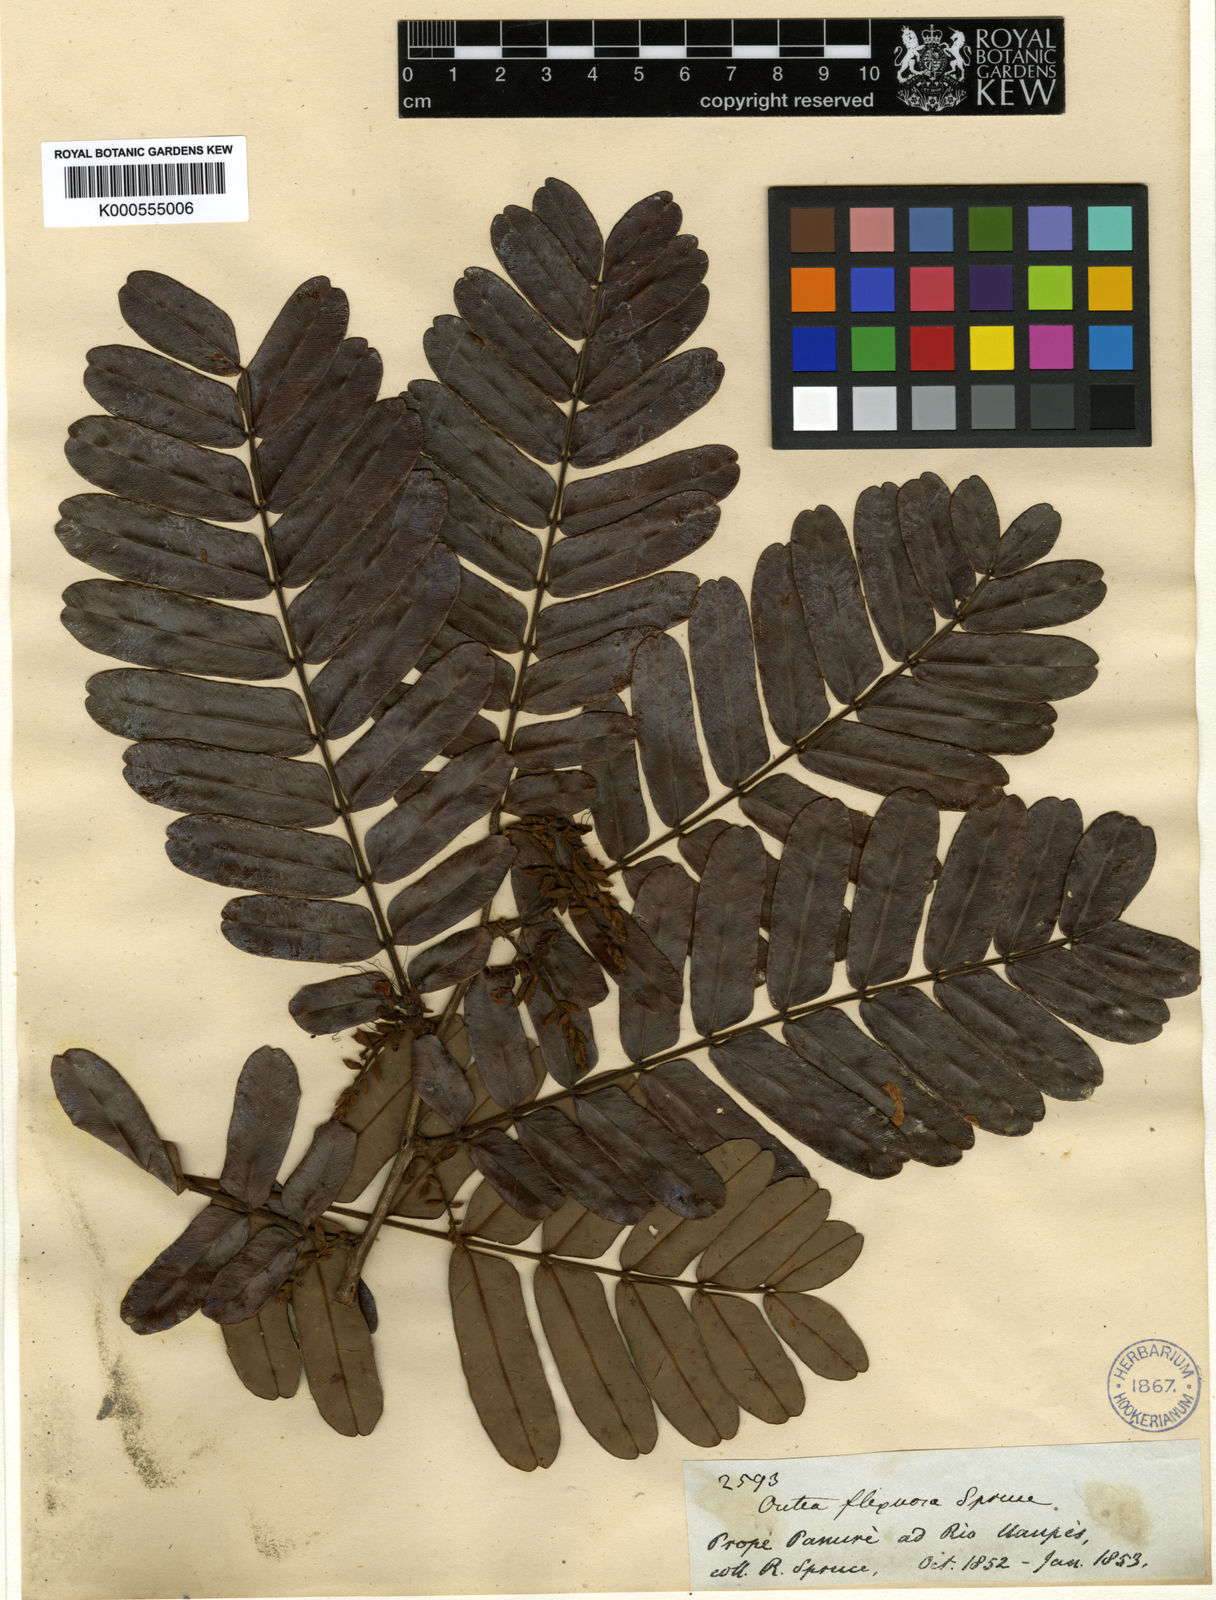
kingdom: Plantae
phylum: Tracheophyta
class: Magnoliopsida
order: Fabales
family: Fabaceae
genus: Macrolobium
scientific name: Macrolobium flexuosum
